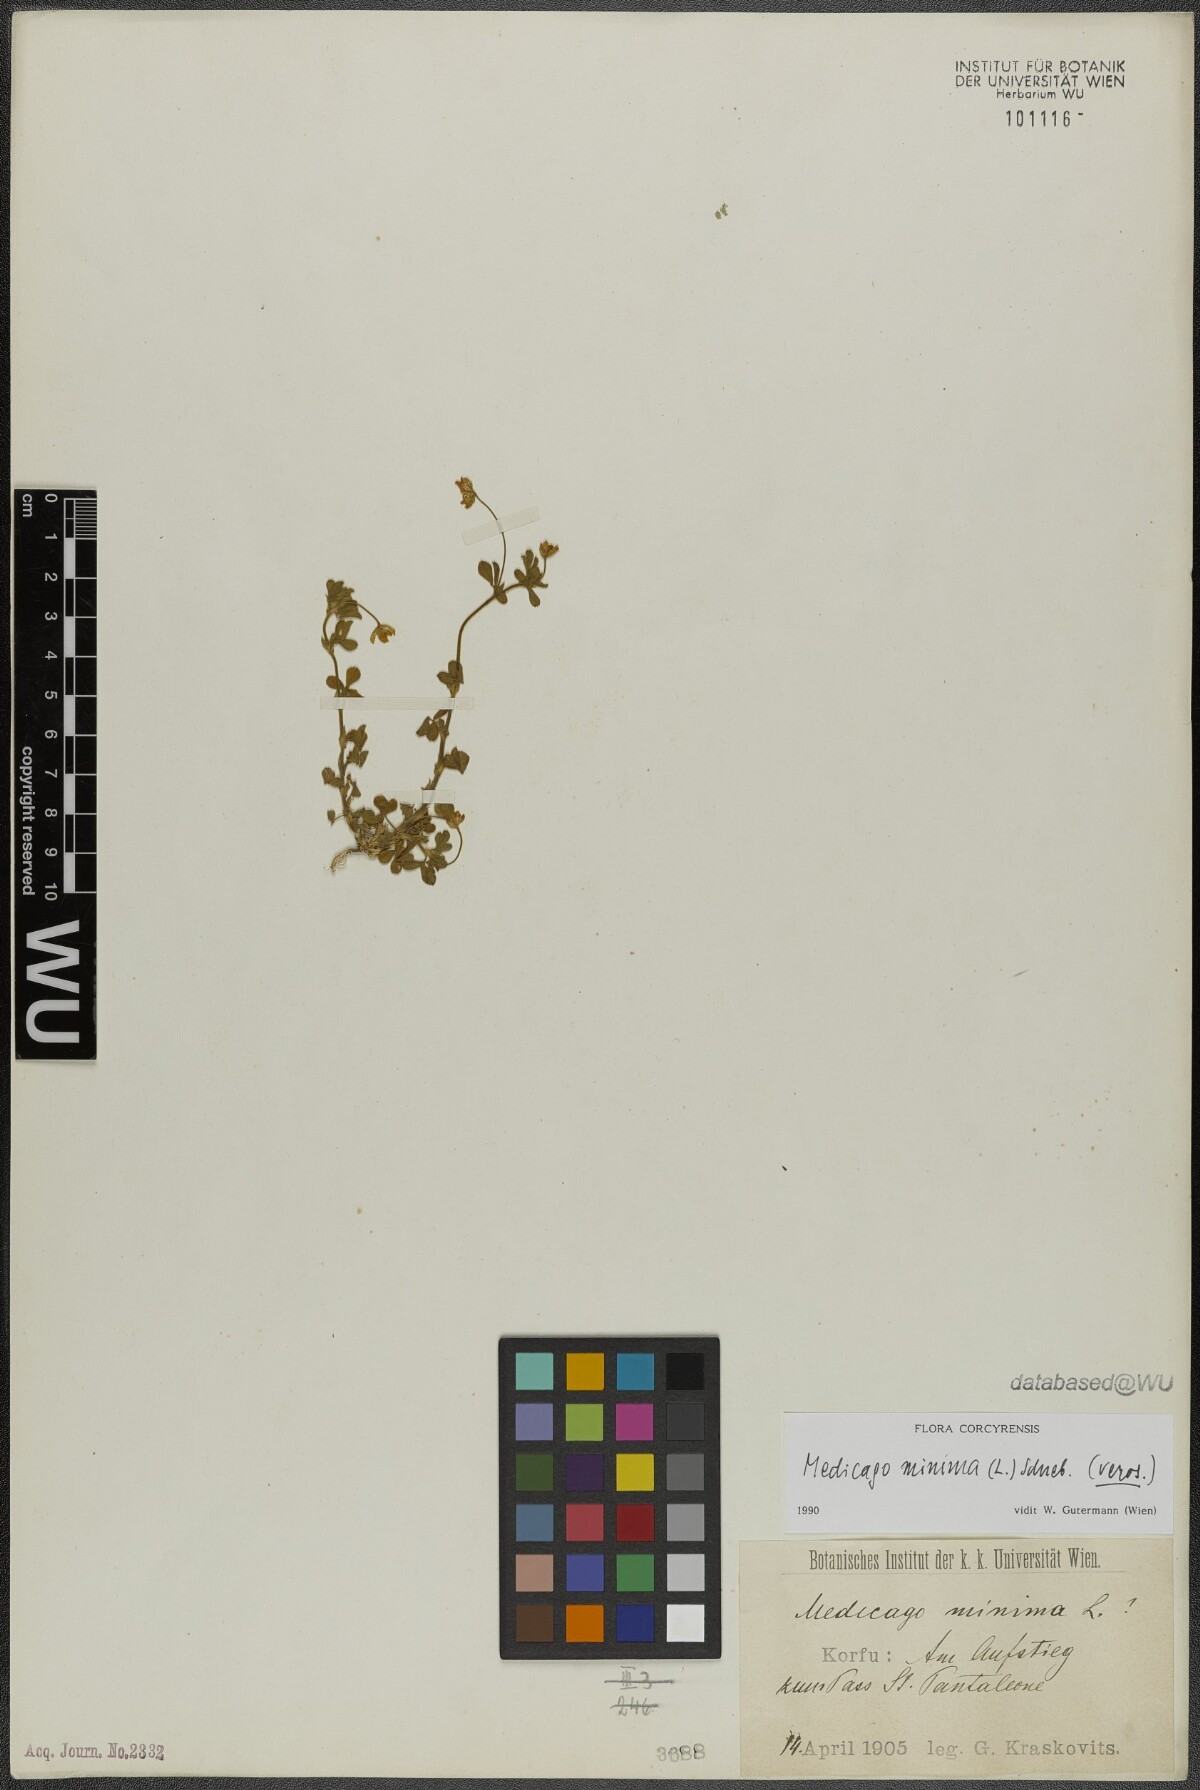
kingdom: Plantae
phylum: Tracheophyta
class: Magnoliopsida
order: Fabales
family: Fabaceae
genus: Medicago
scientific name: Medicago minima
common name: Little bur-clover
